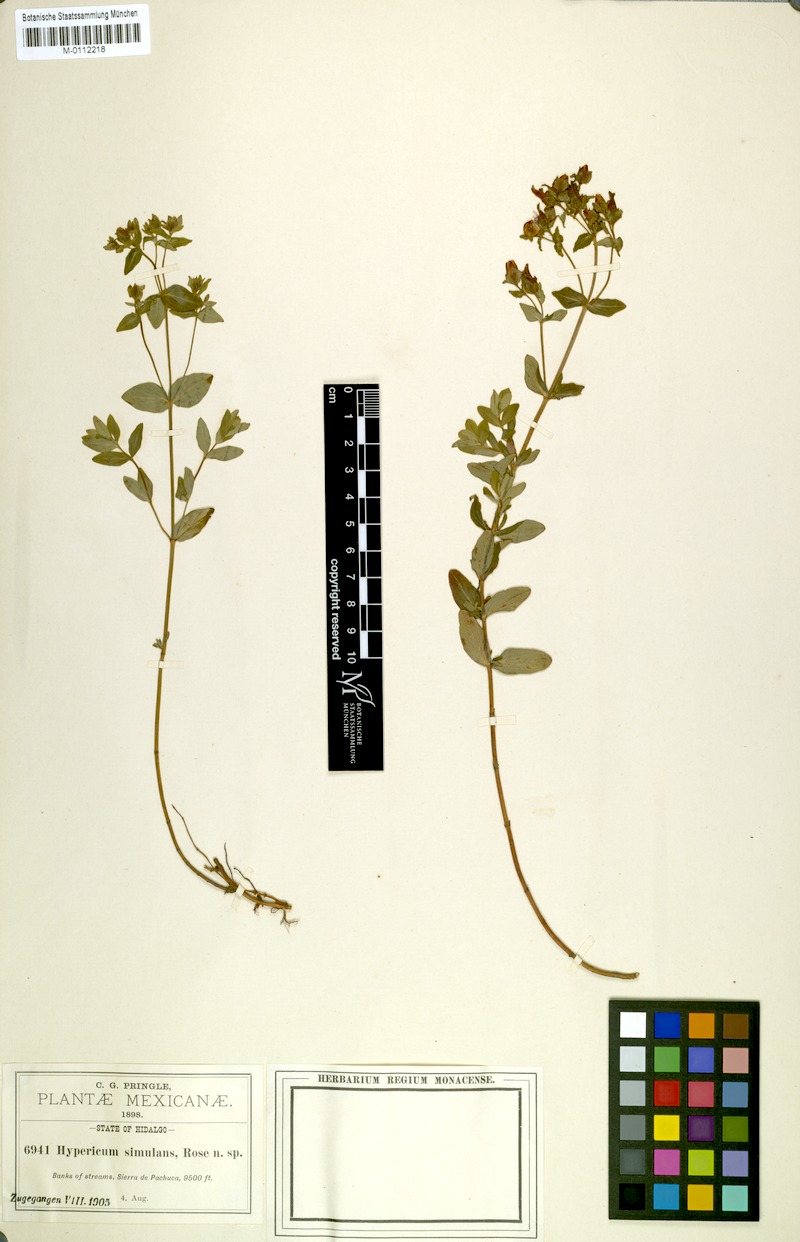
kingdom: Plantae
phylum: Tracheophyta
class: Magnoliopsida
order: Malpighiales
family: Hypericaceae
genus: Hypericum
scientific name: Hypericum formosum
